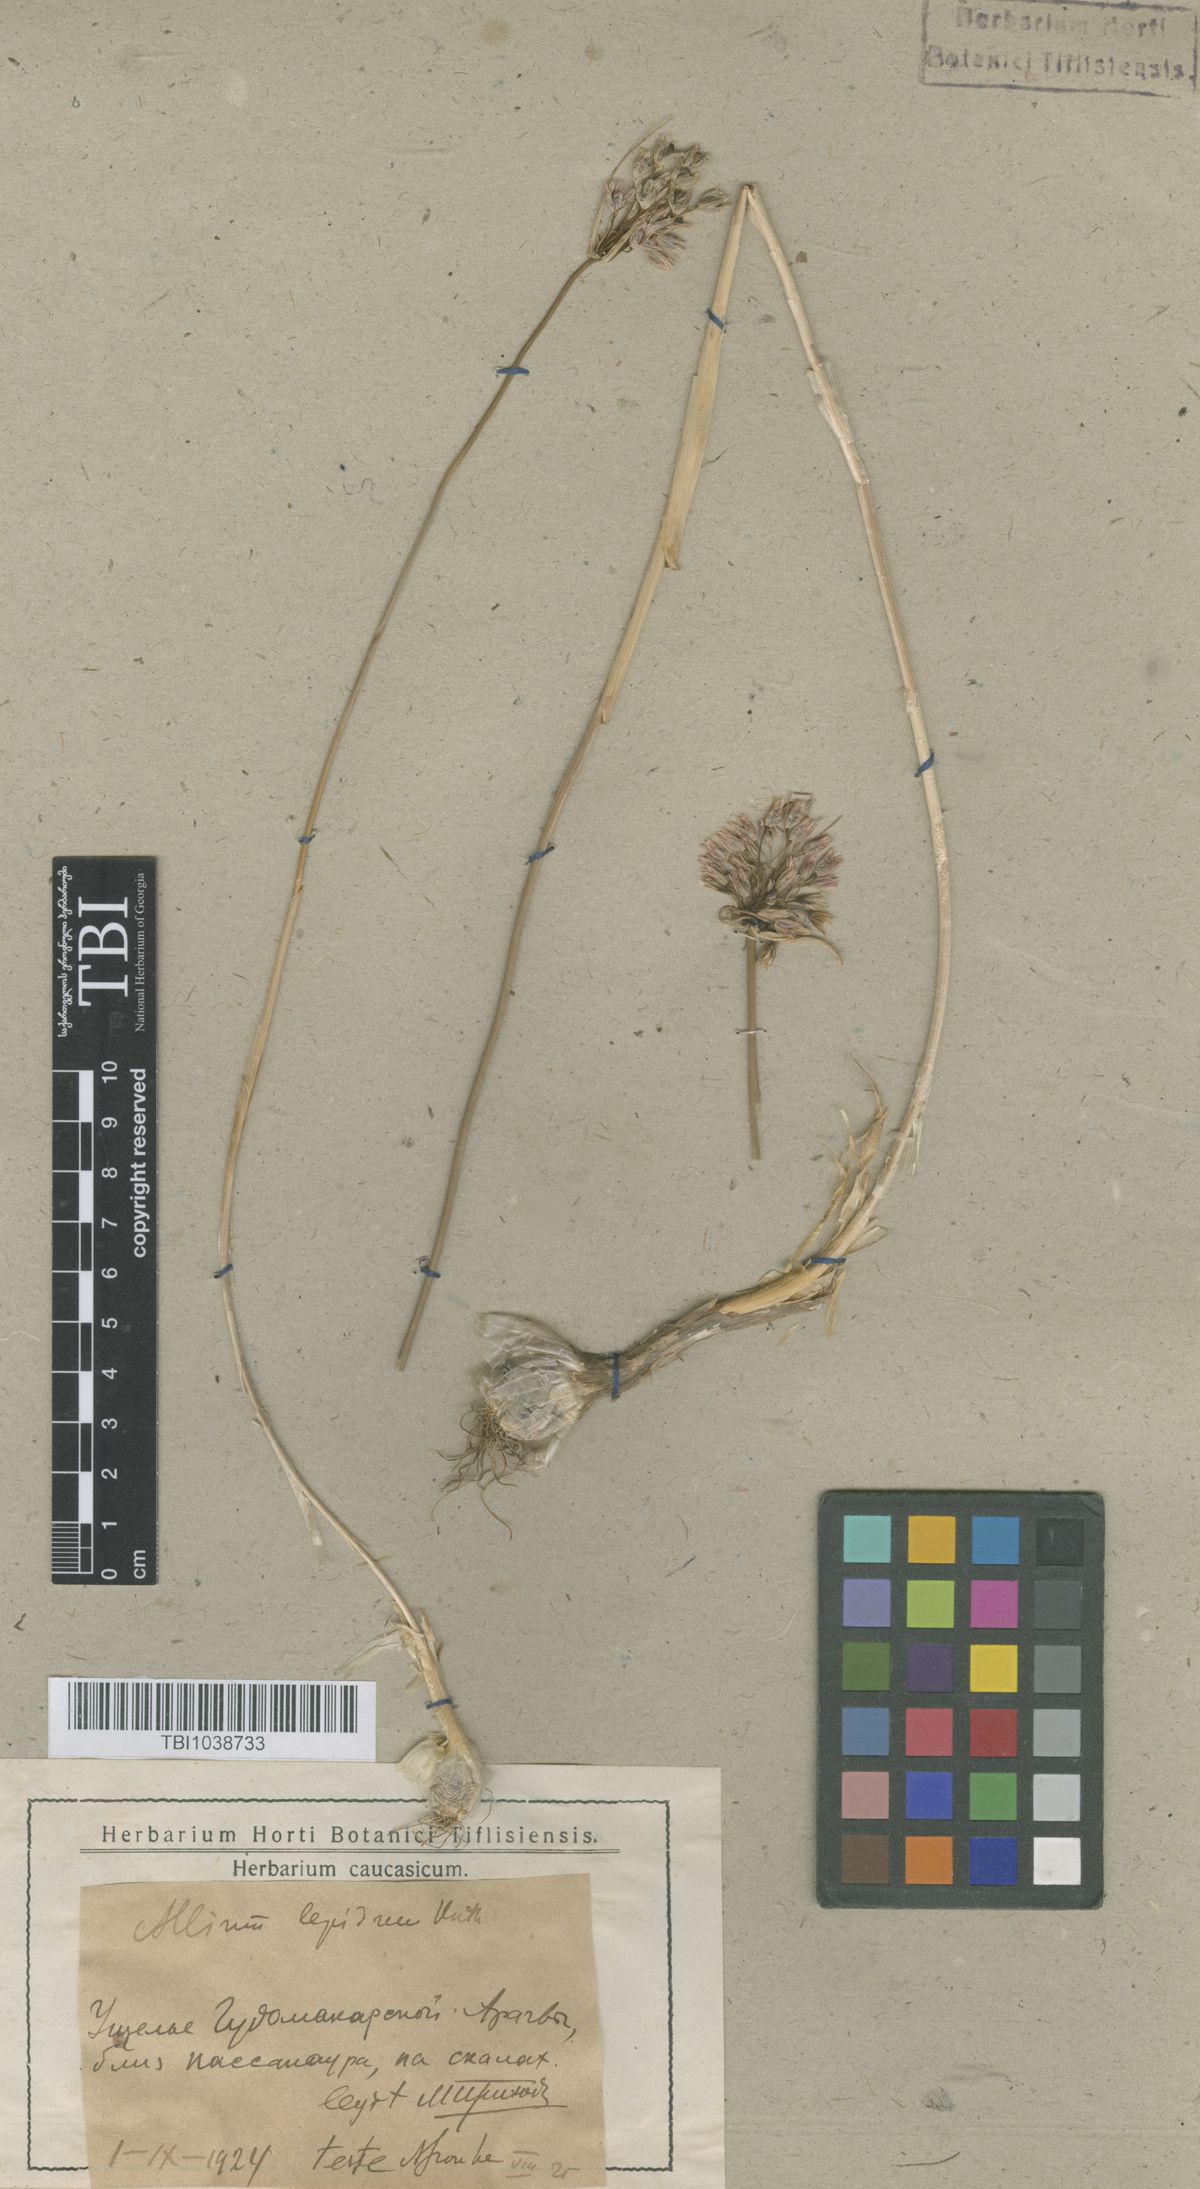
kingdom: Plantae
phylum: Tracheophyta
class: Liliopsida
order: Asparagales
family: Amaryllidaceae
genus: Allium
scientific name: Allium kunthianum
